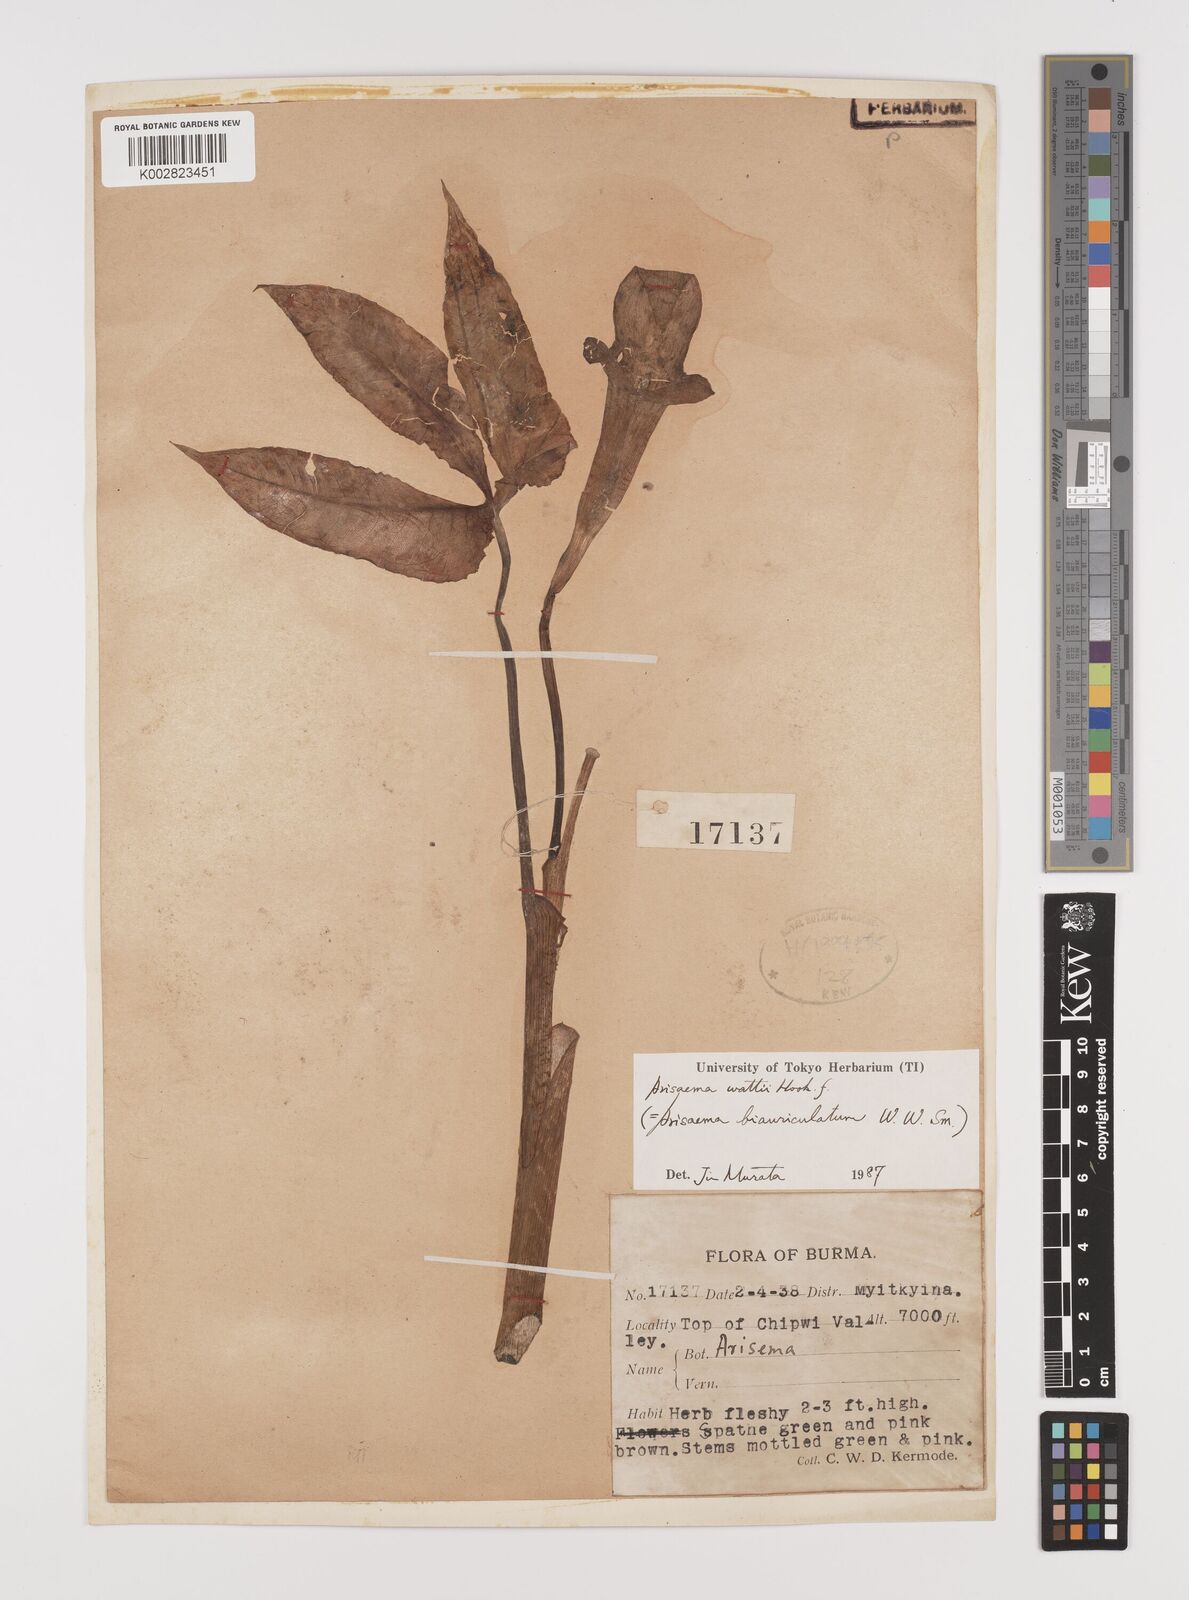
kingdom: Plantae
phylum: Tracheophyta
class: Liliopsida
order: Alismatales
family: Araceae
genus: Arisaema
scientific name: Arisaema wattii
